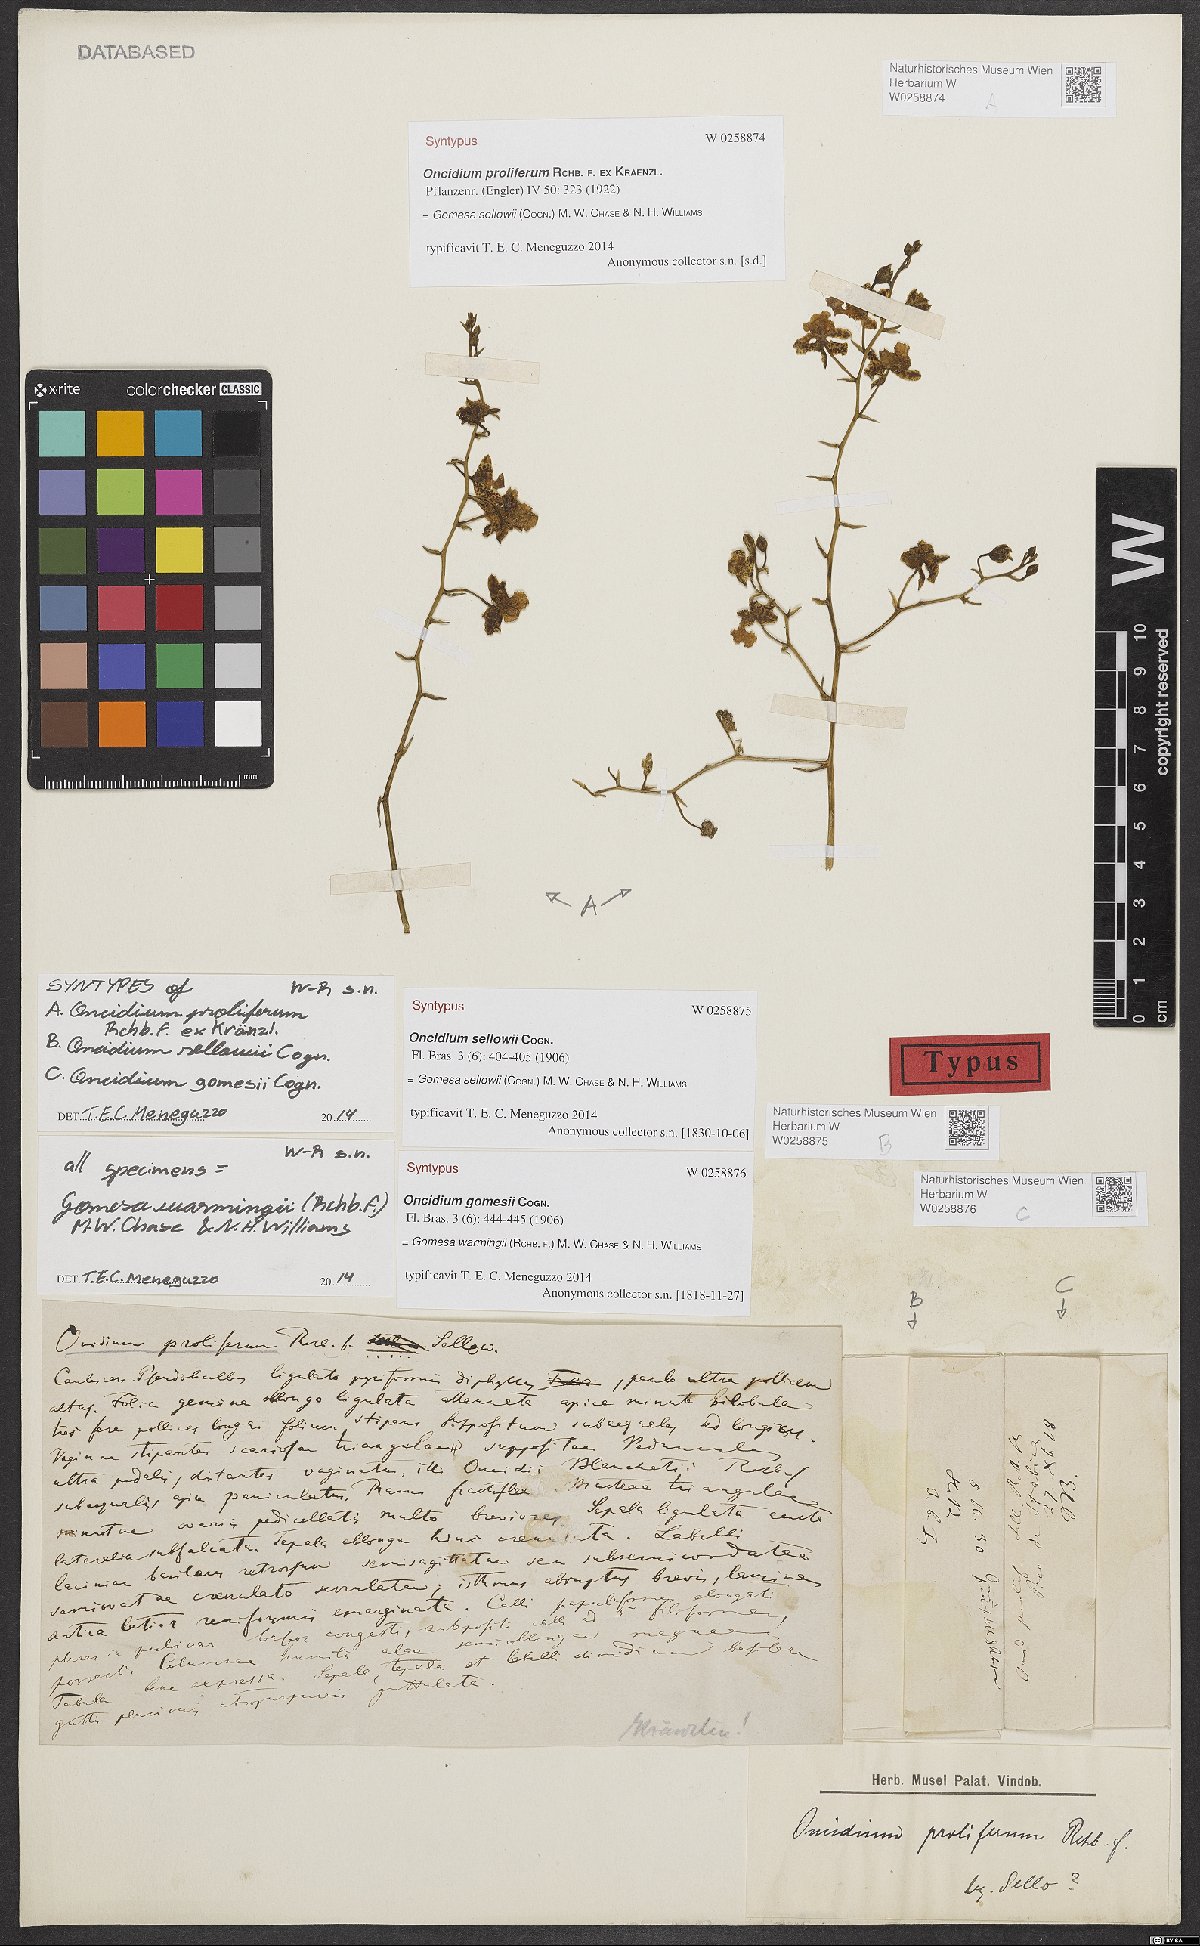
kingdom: Plantae
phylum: Tracheophyta
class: Liliopsida
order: Asparagales
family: Orchidaceae
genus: Gomesa
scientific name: Gomesa sellowii
